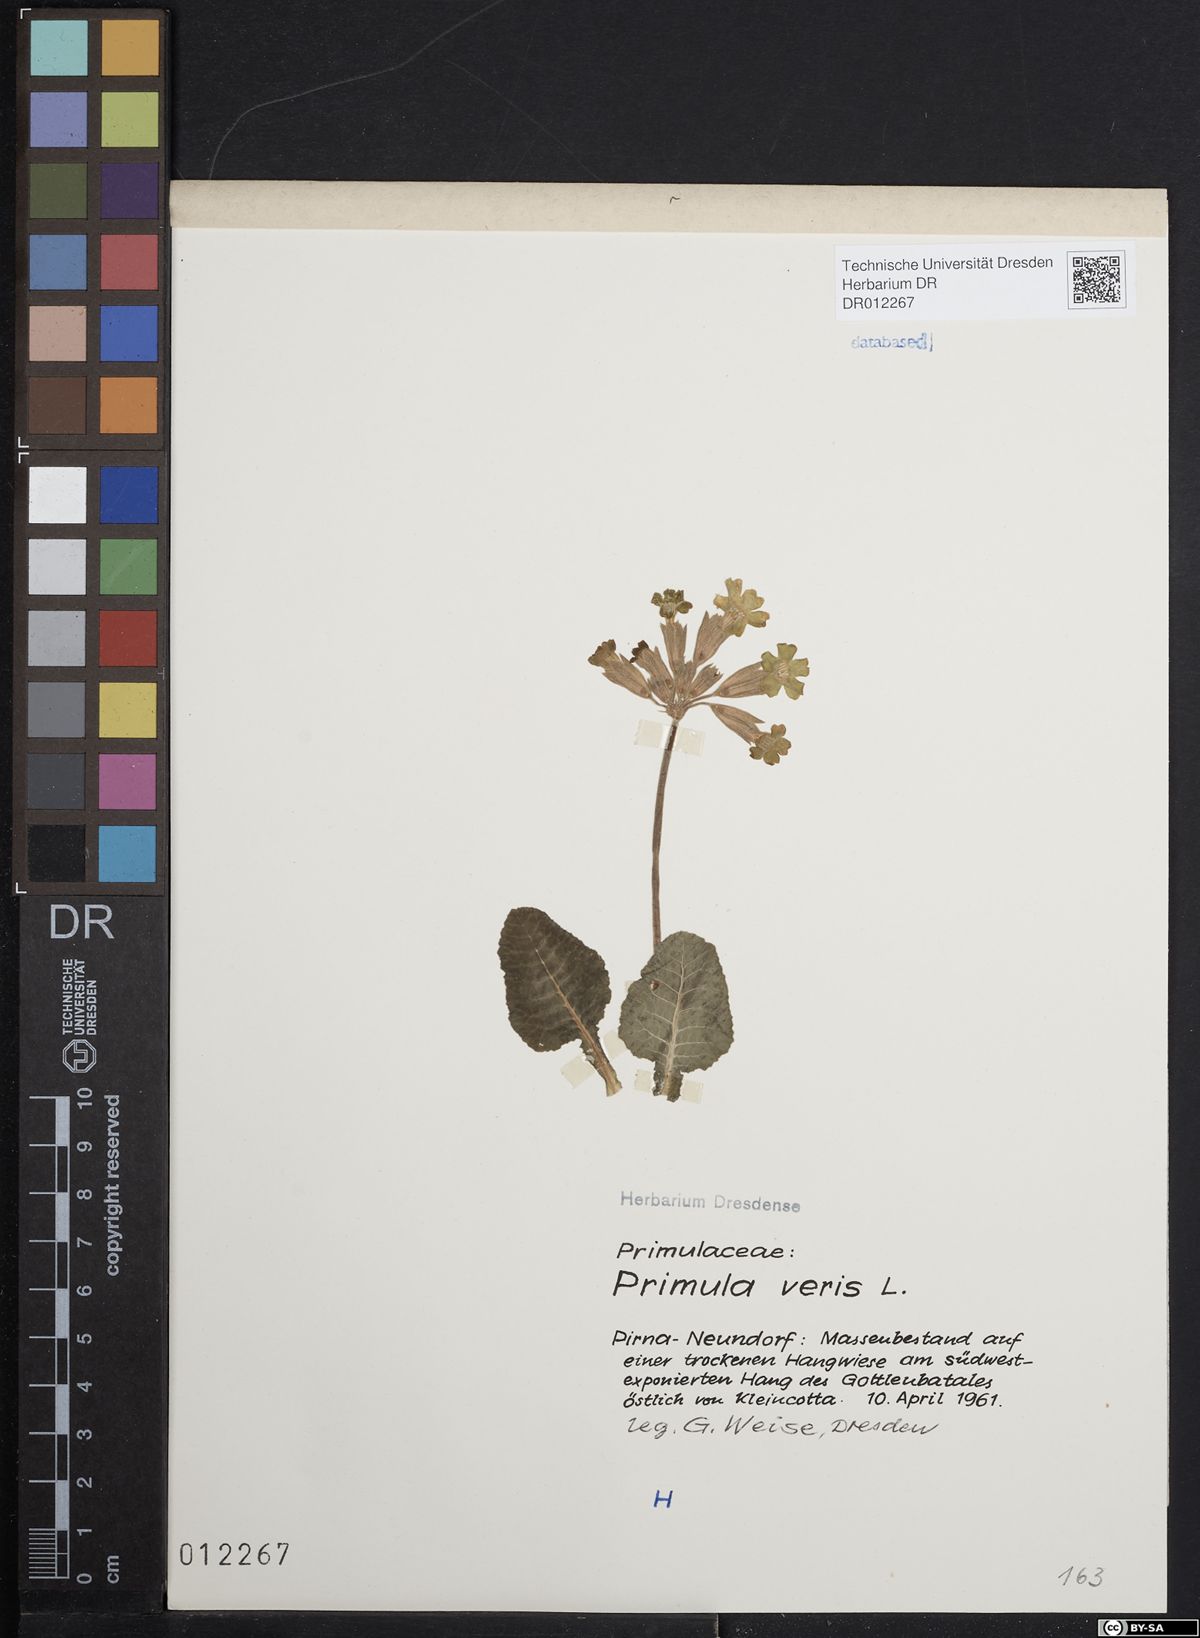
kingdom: Plantae
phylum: Tracheophyta
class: Magnoliopsida
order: Ericales
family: Primulaceae
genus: Primula
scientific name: Primula veris
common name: Cowslip
